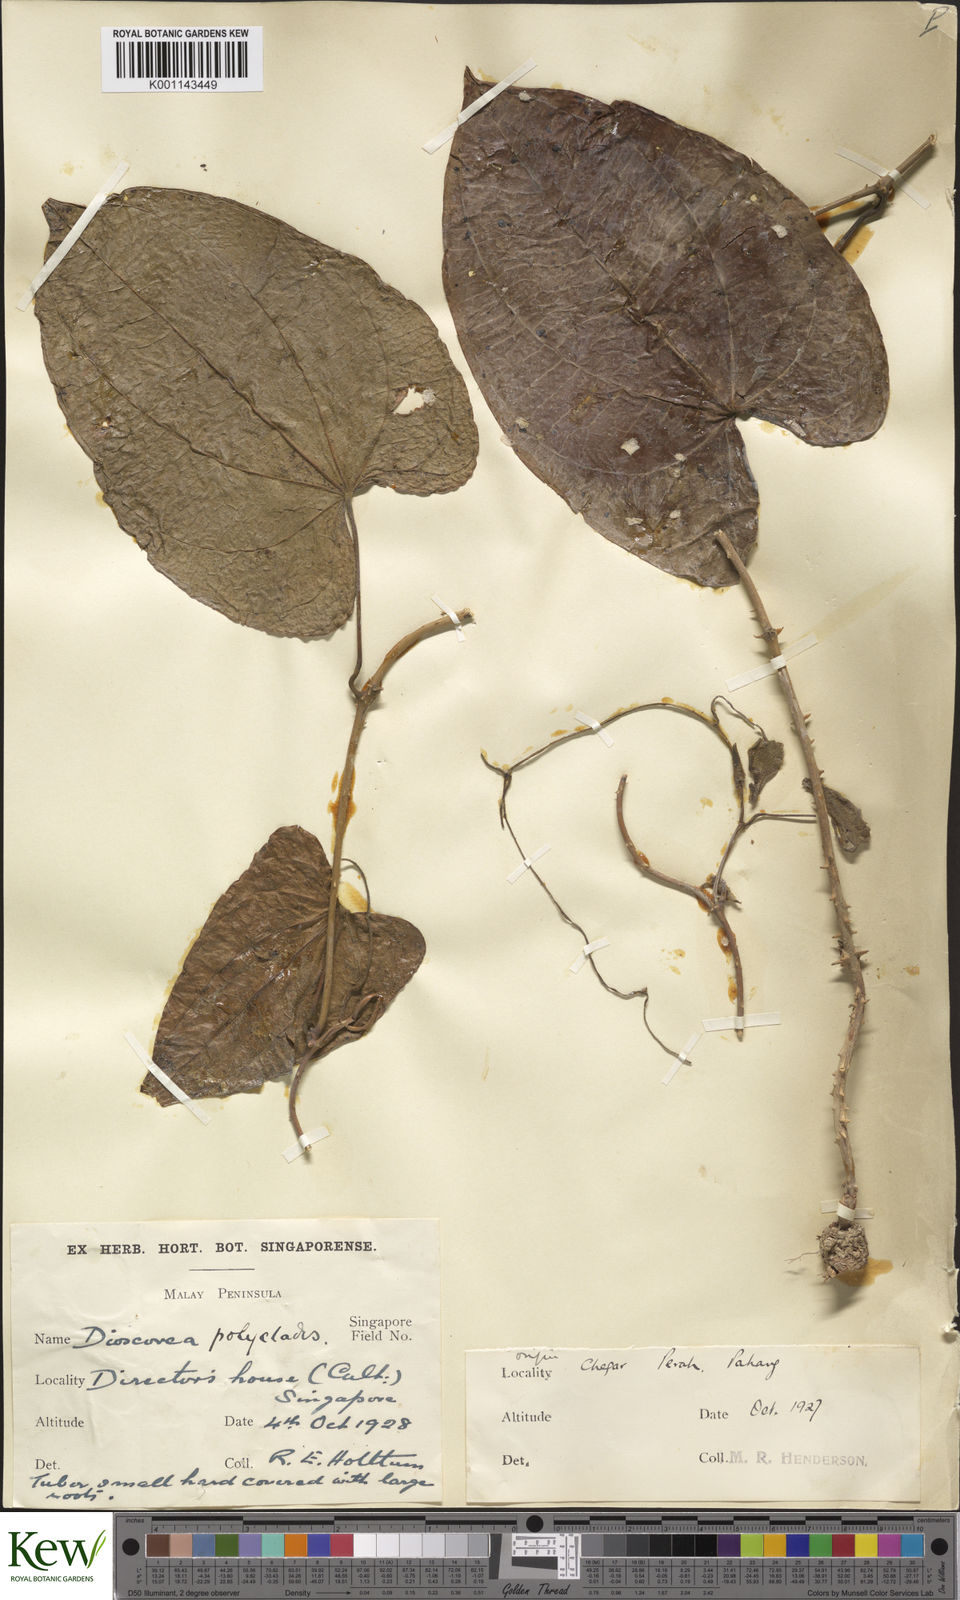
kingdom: Plantae
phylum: Tracheophyta
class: Liliopsida
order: Dioscoreales
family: Dioscoreaceae
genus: Dioscorea
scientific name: Dioscorea polyclados
